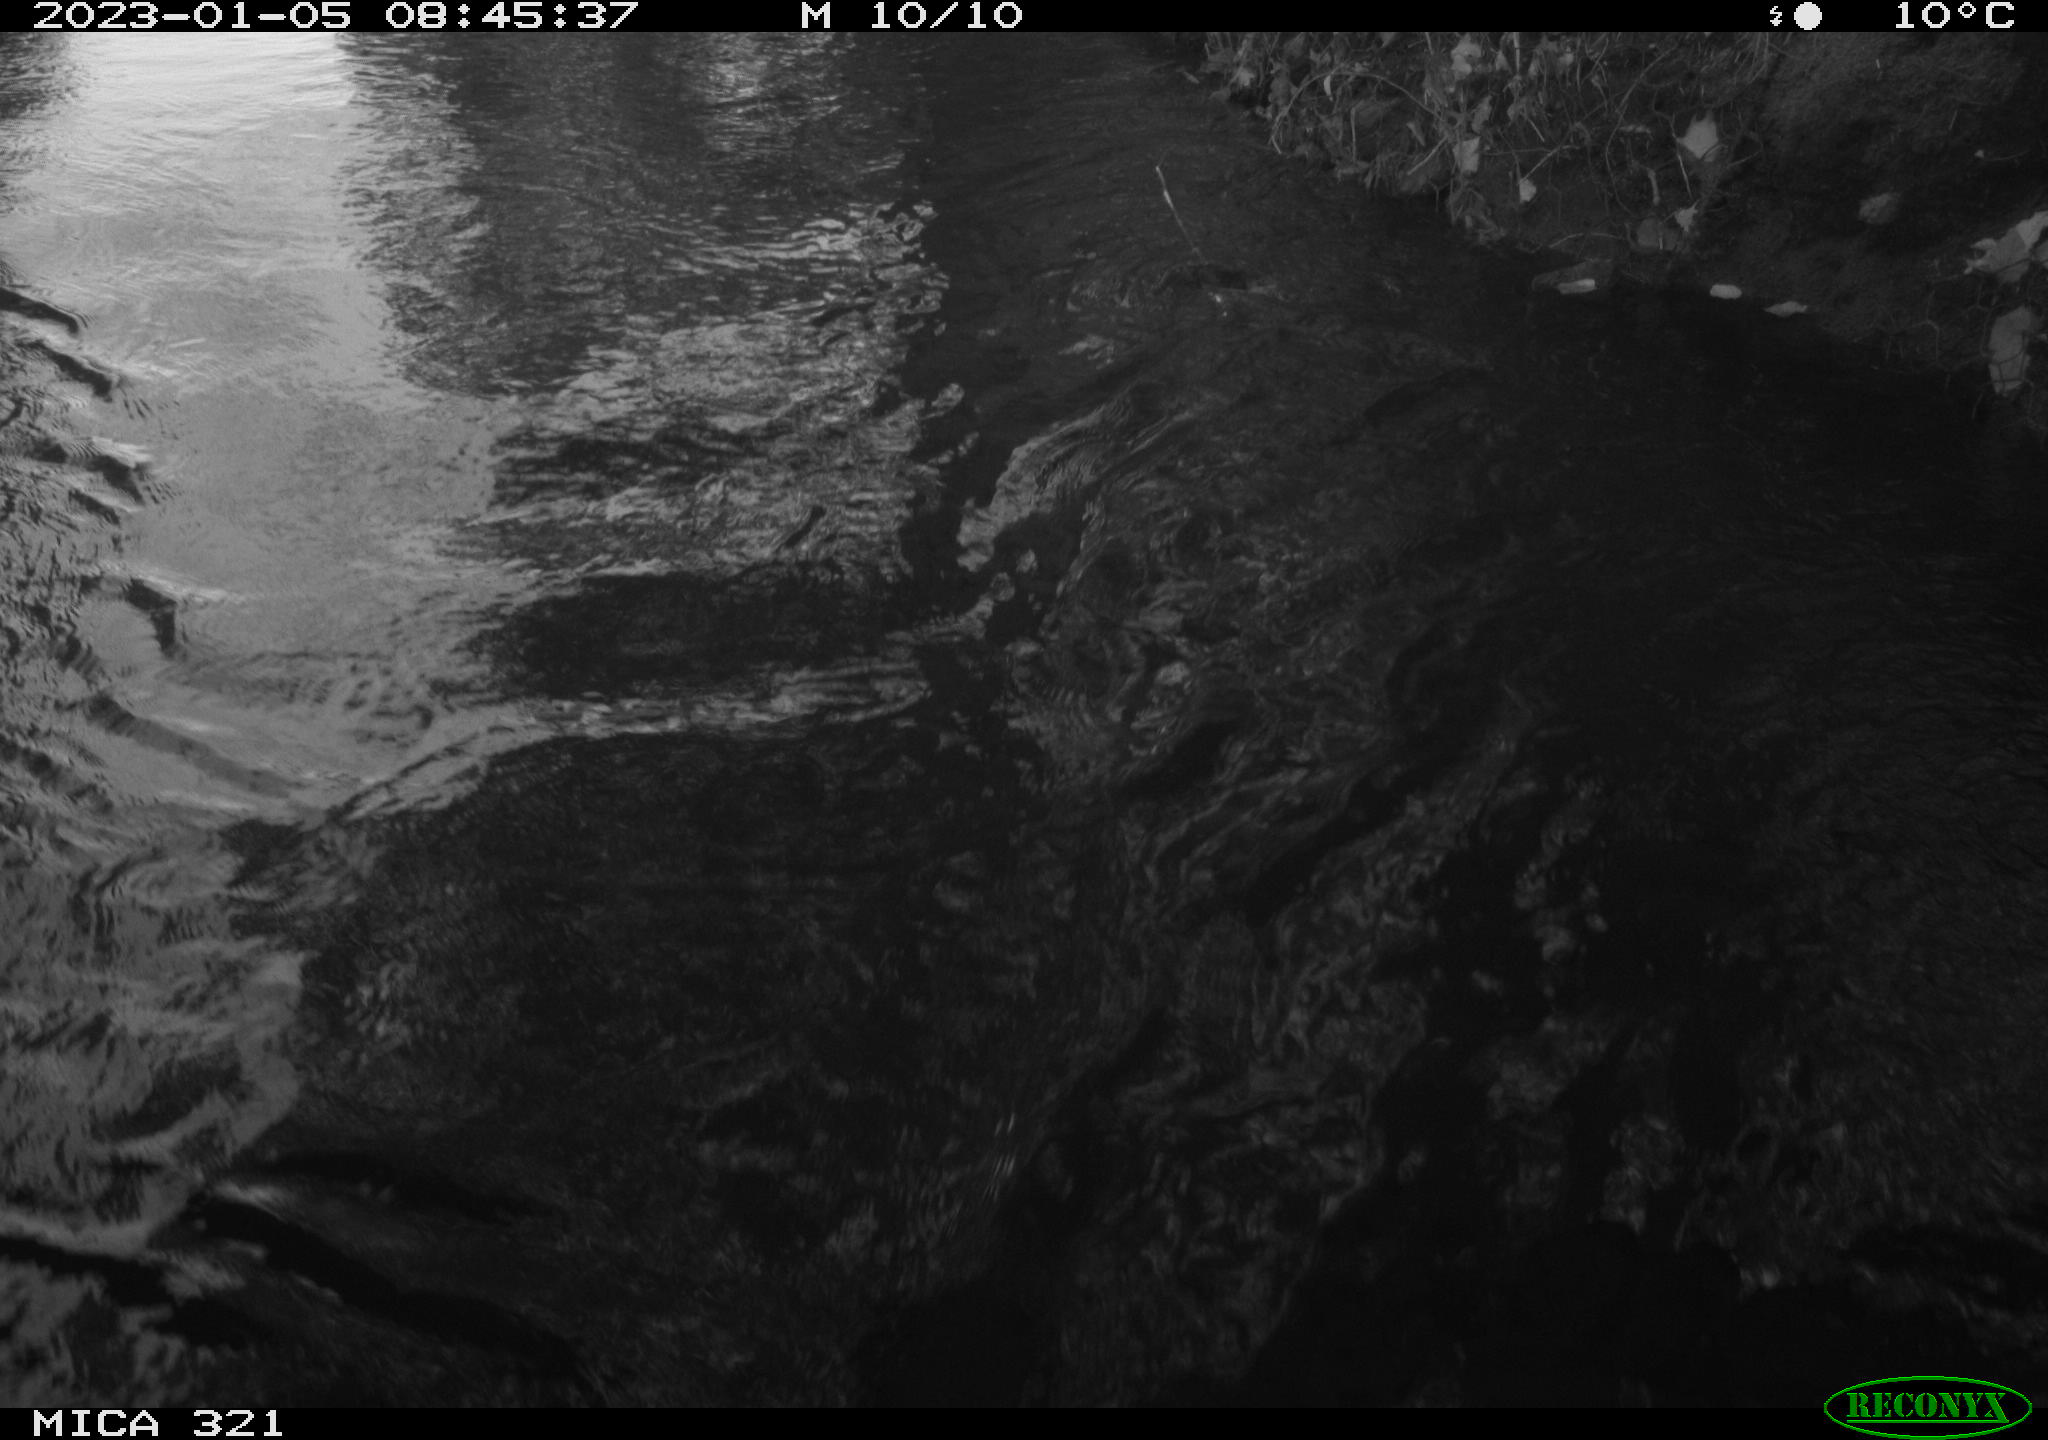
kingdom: Animalia
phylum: Chordata
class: Aves
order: Gruiformes
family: Rallidae
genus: Fulica
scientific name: Fulica atra
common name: Eurasian coot
